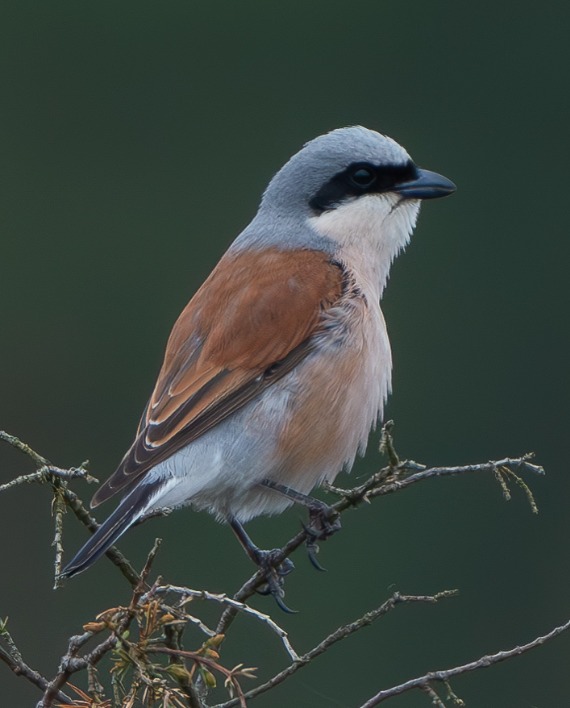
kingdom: Animalia
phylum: Chordata
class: Aves
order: Passeriformes
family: Laniidae
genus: Lanius
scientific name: Lanius collurio
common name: Rødrygget tornskade
